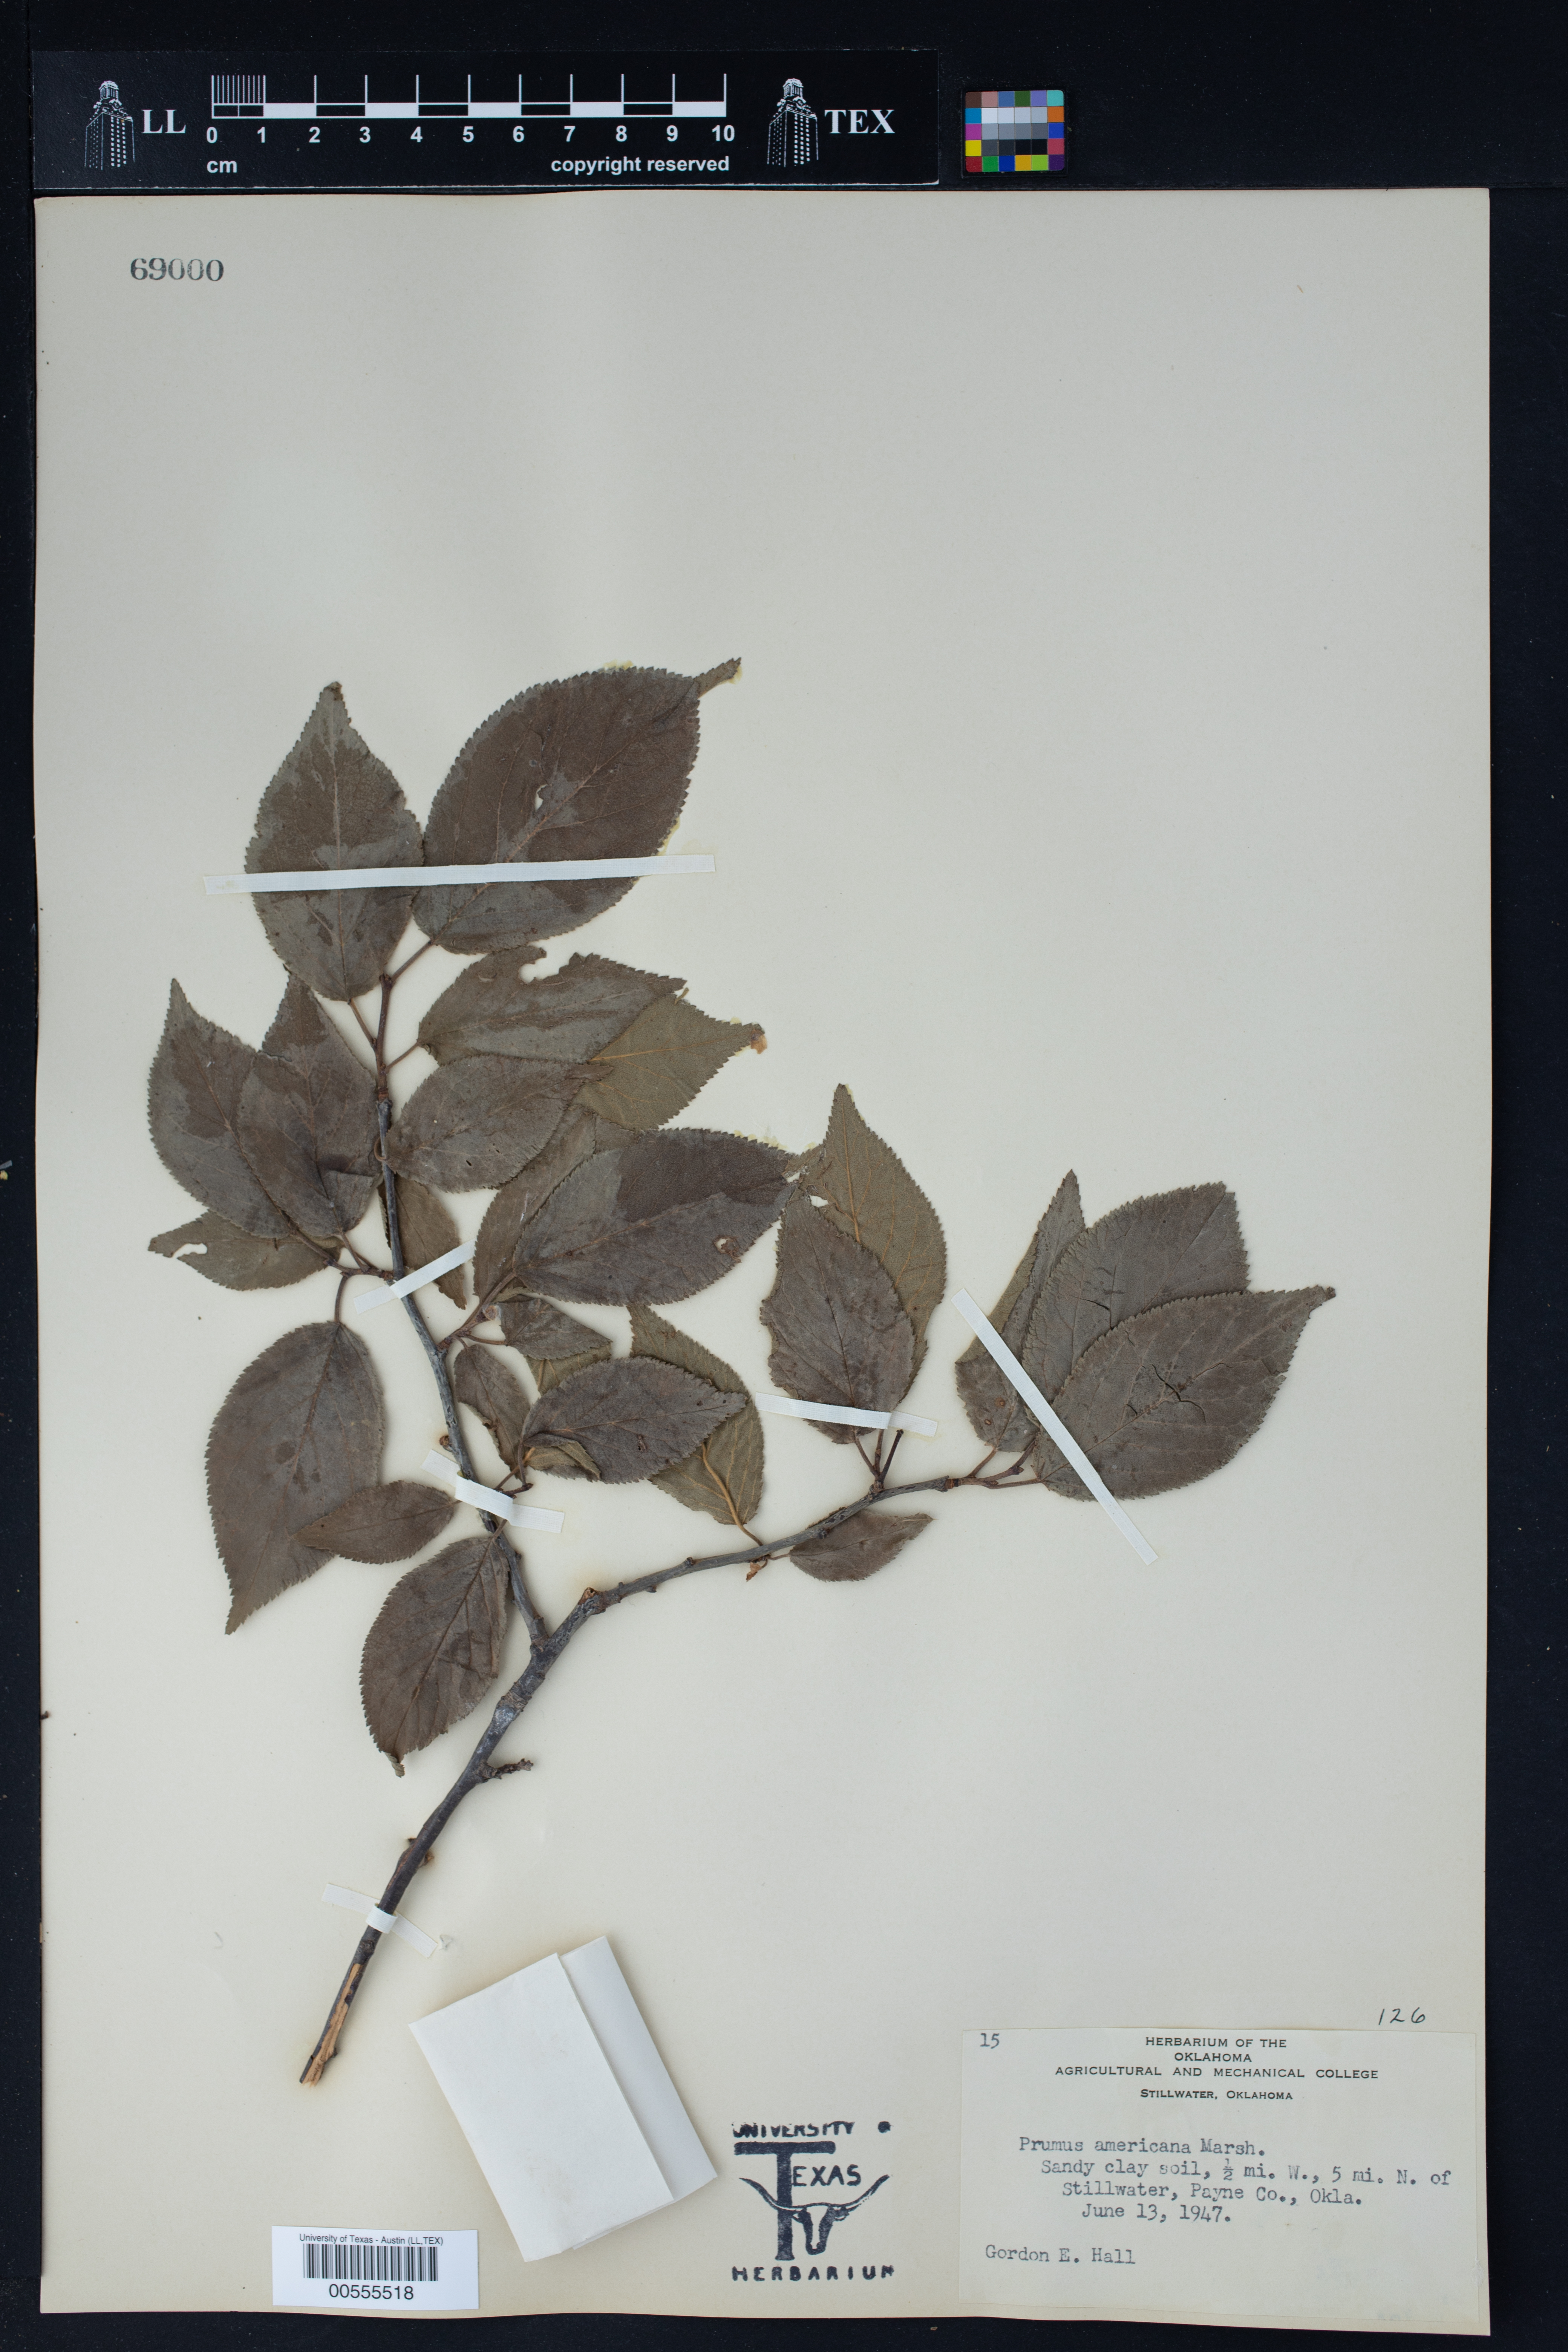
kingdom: Plantae
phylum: Tracheophyta
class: Magnoliopsida
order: Rosales
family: Rosaceae
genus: Prunus
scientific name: Prunus americana
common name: American plum
